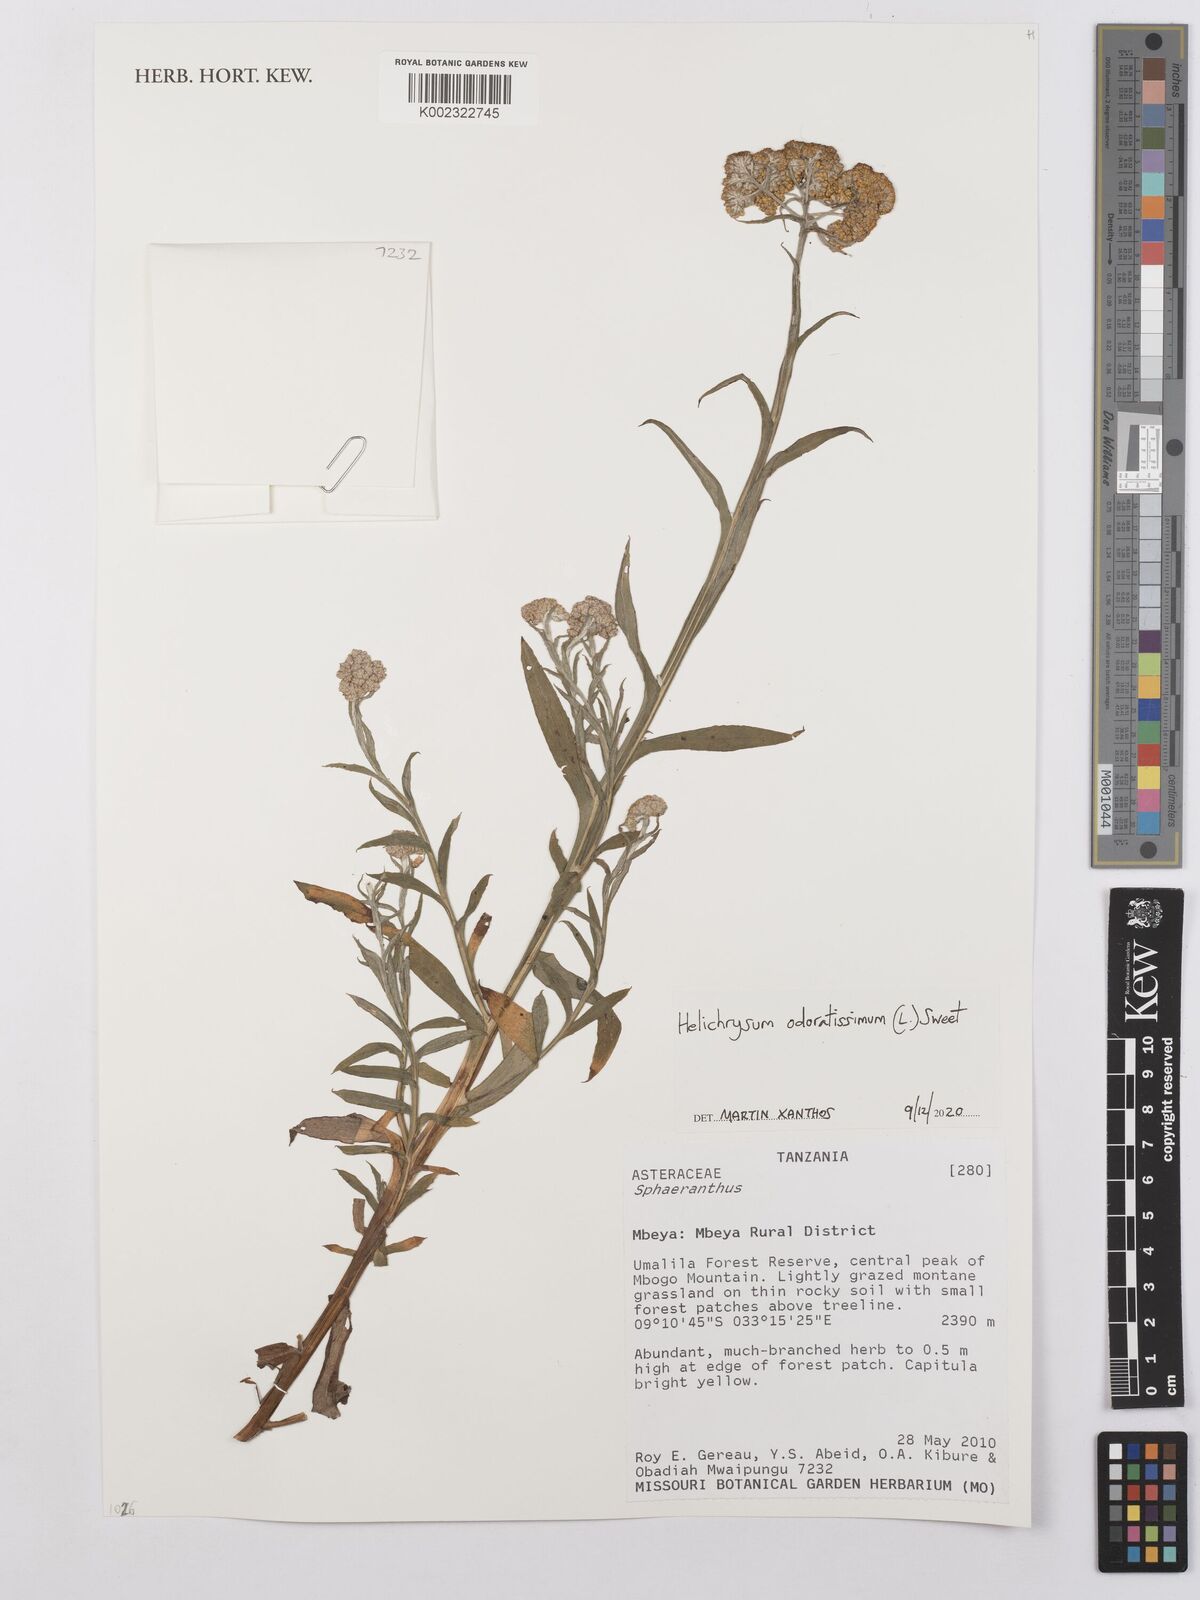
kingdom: Plantae
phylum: Tracheophyta
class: Magnoliopsida
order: Asterales
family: Asteraceae
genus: Helichrysum
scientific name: Helichrysum odoratissimum
